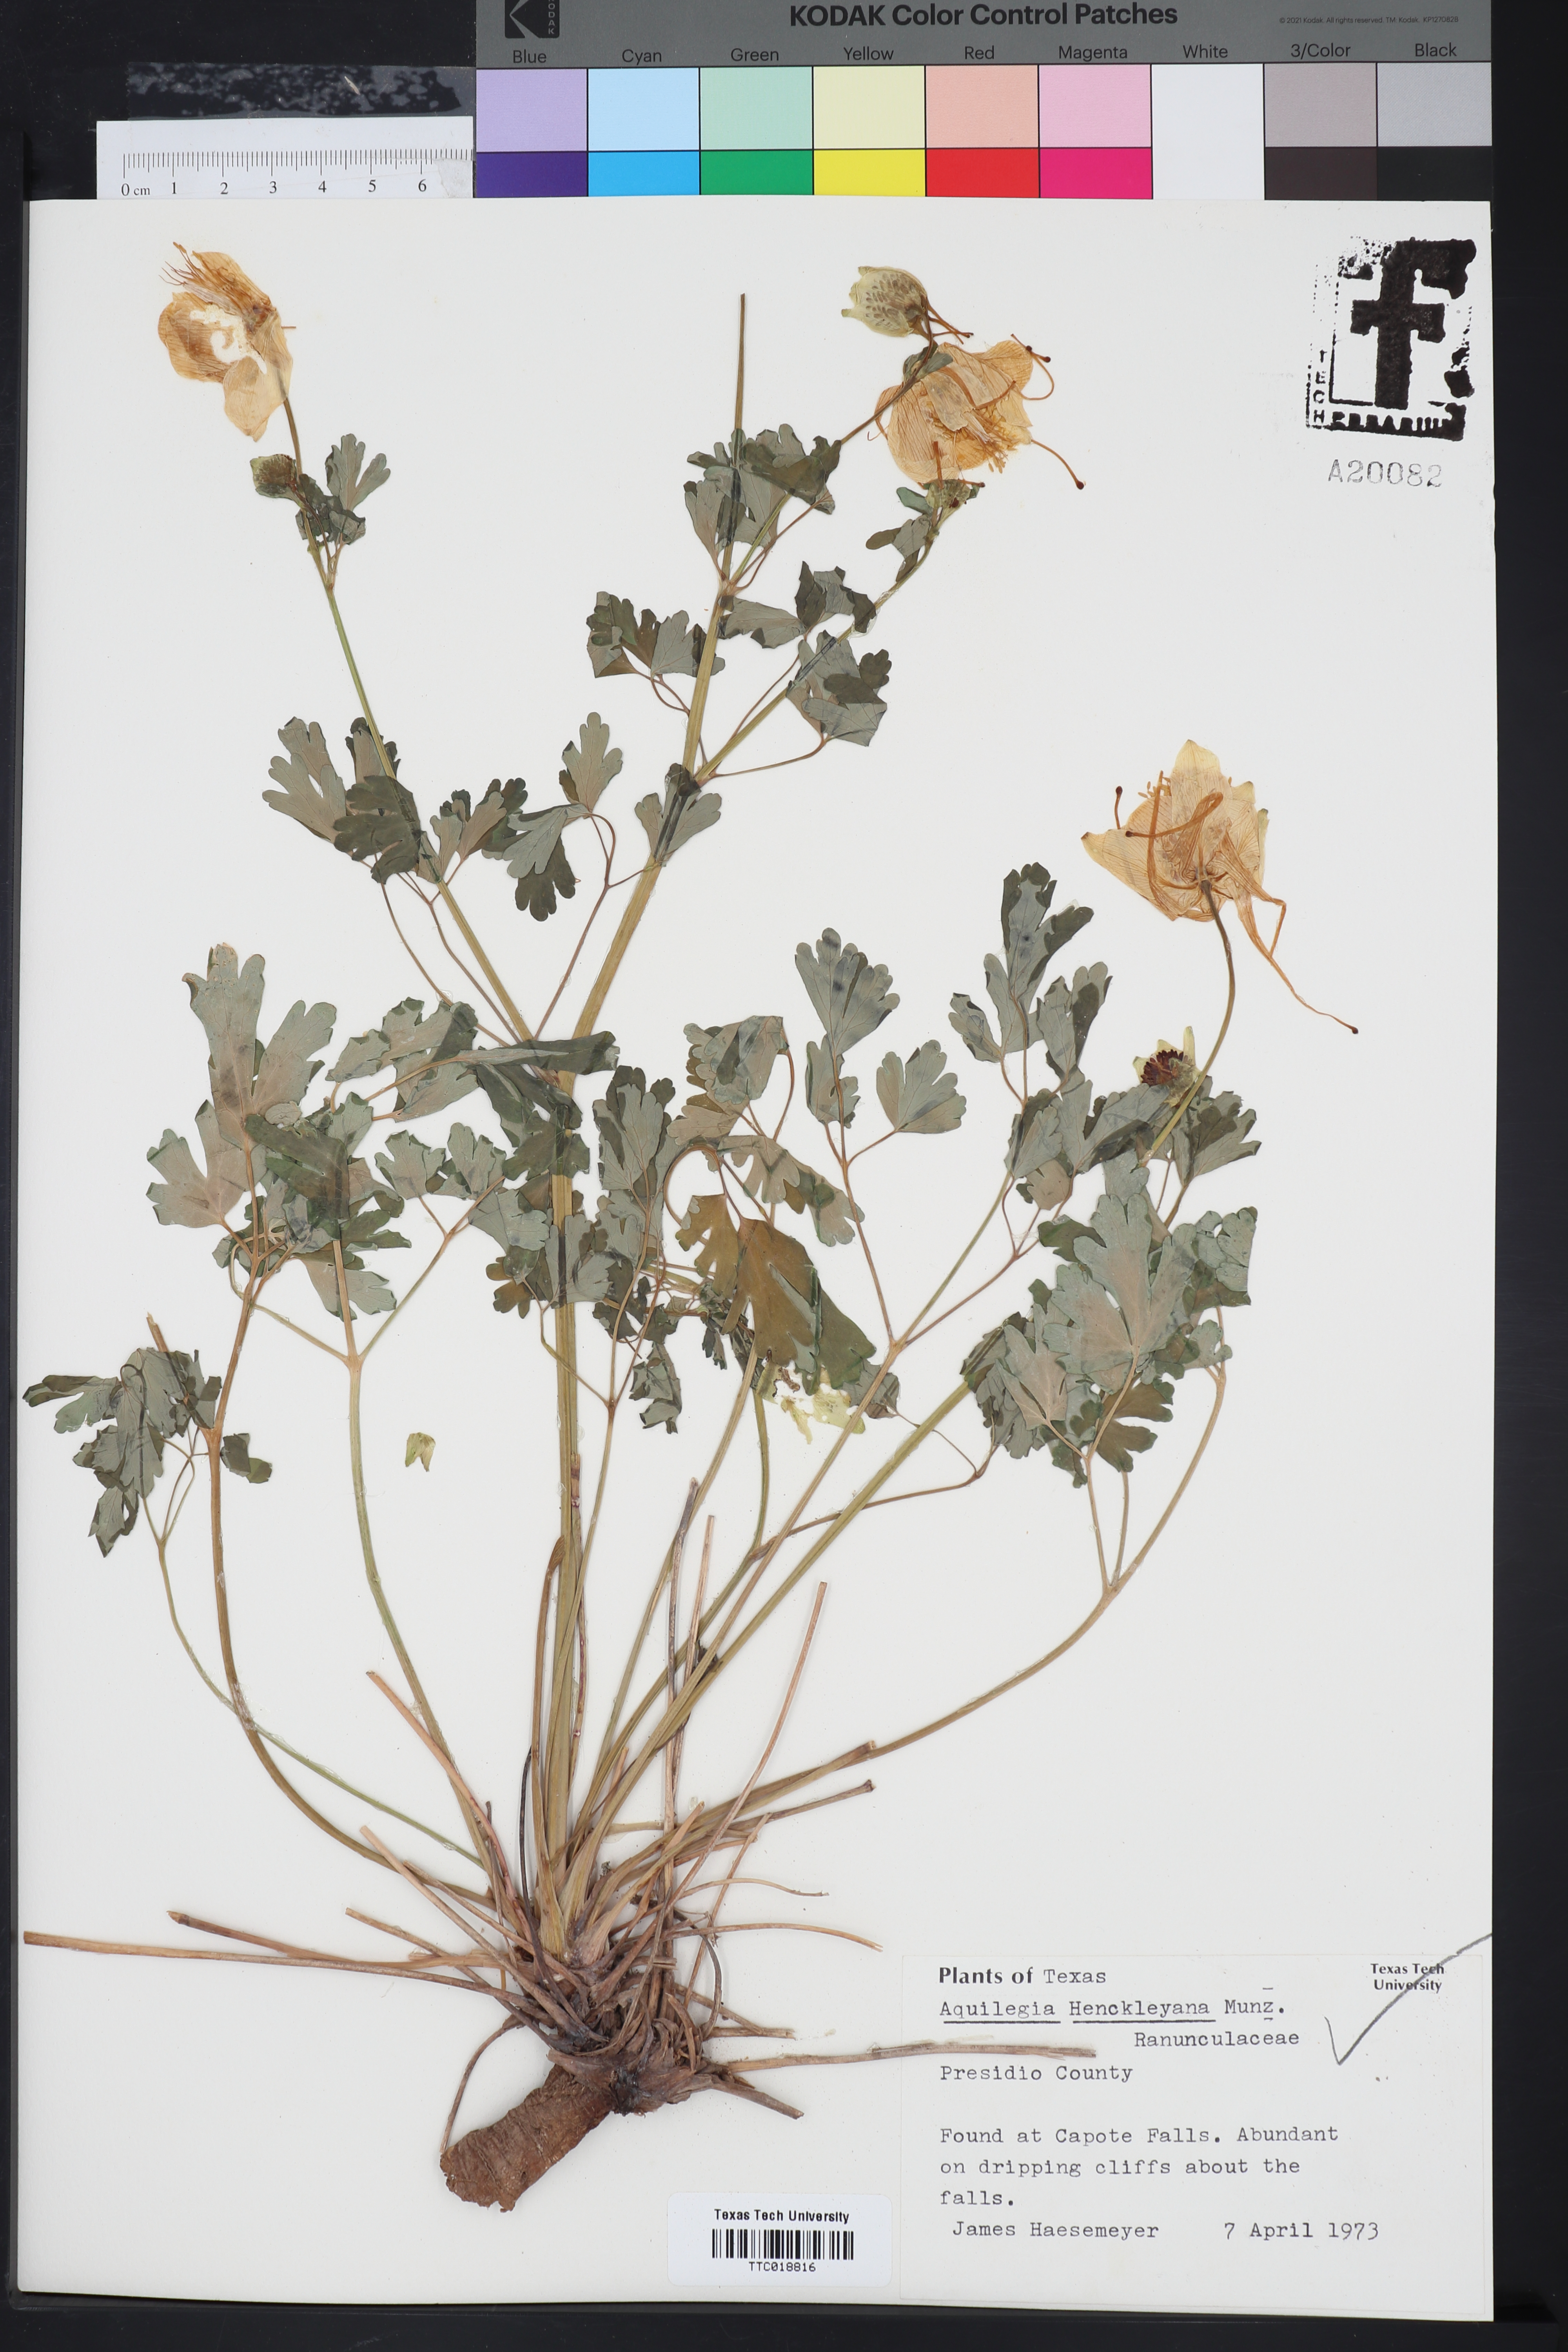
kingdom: Plantae
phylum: Tracheophyta
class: Magnoliopsida
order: Ranunculales
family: Ranunculaceae
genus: Aquilegia
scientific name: Aquilegia chrysantha
